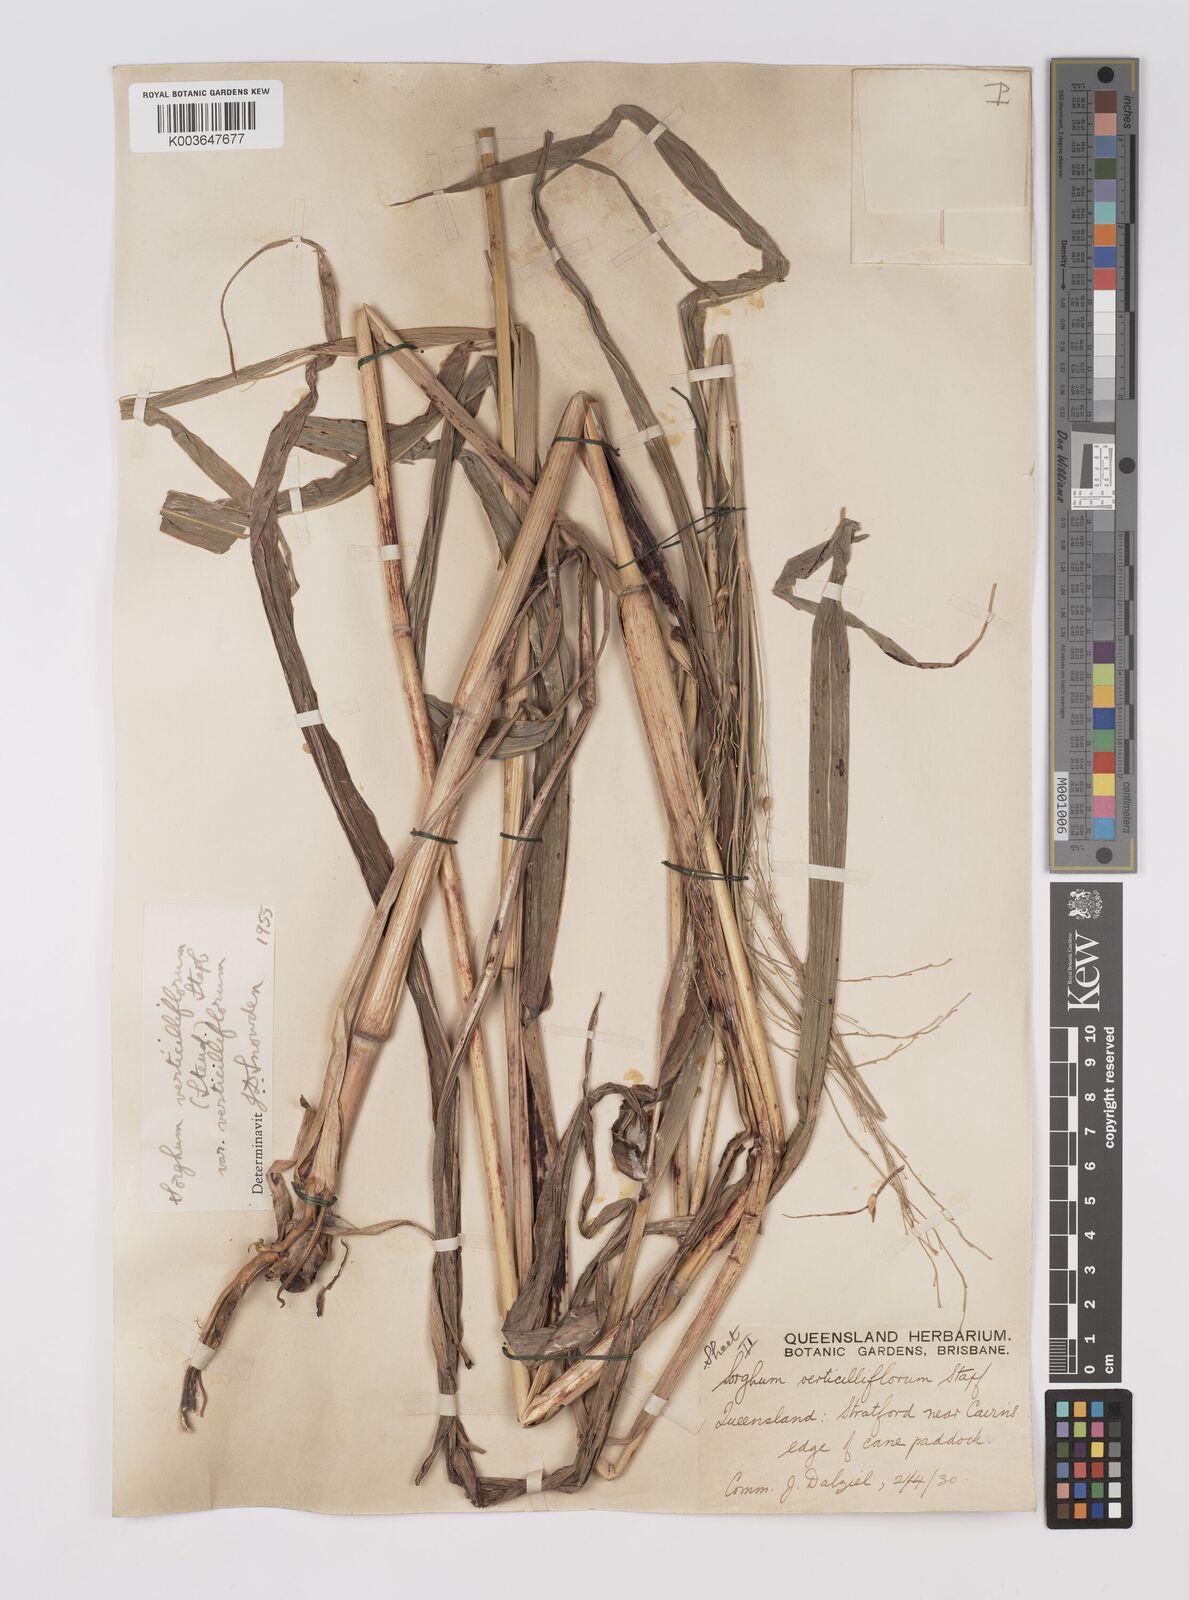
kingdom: Plantae
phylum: Tracheophyta
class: Liliopsida
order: Poales
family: Poaceae
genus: Sorghum
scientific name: Sorghum arundinaceum
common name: Sorghum
